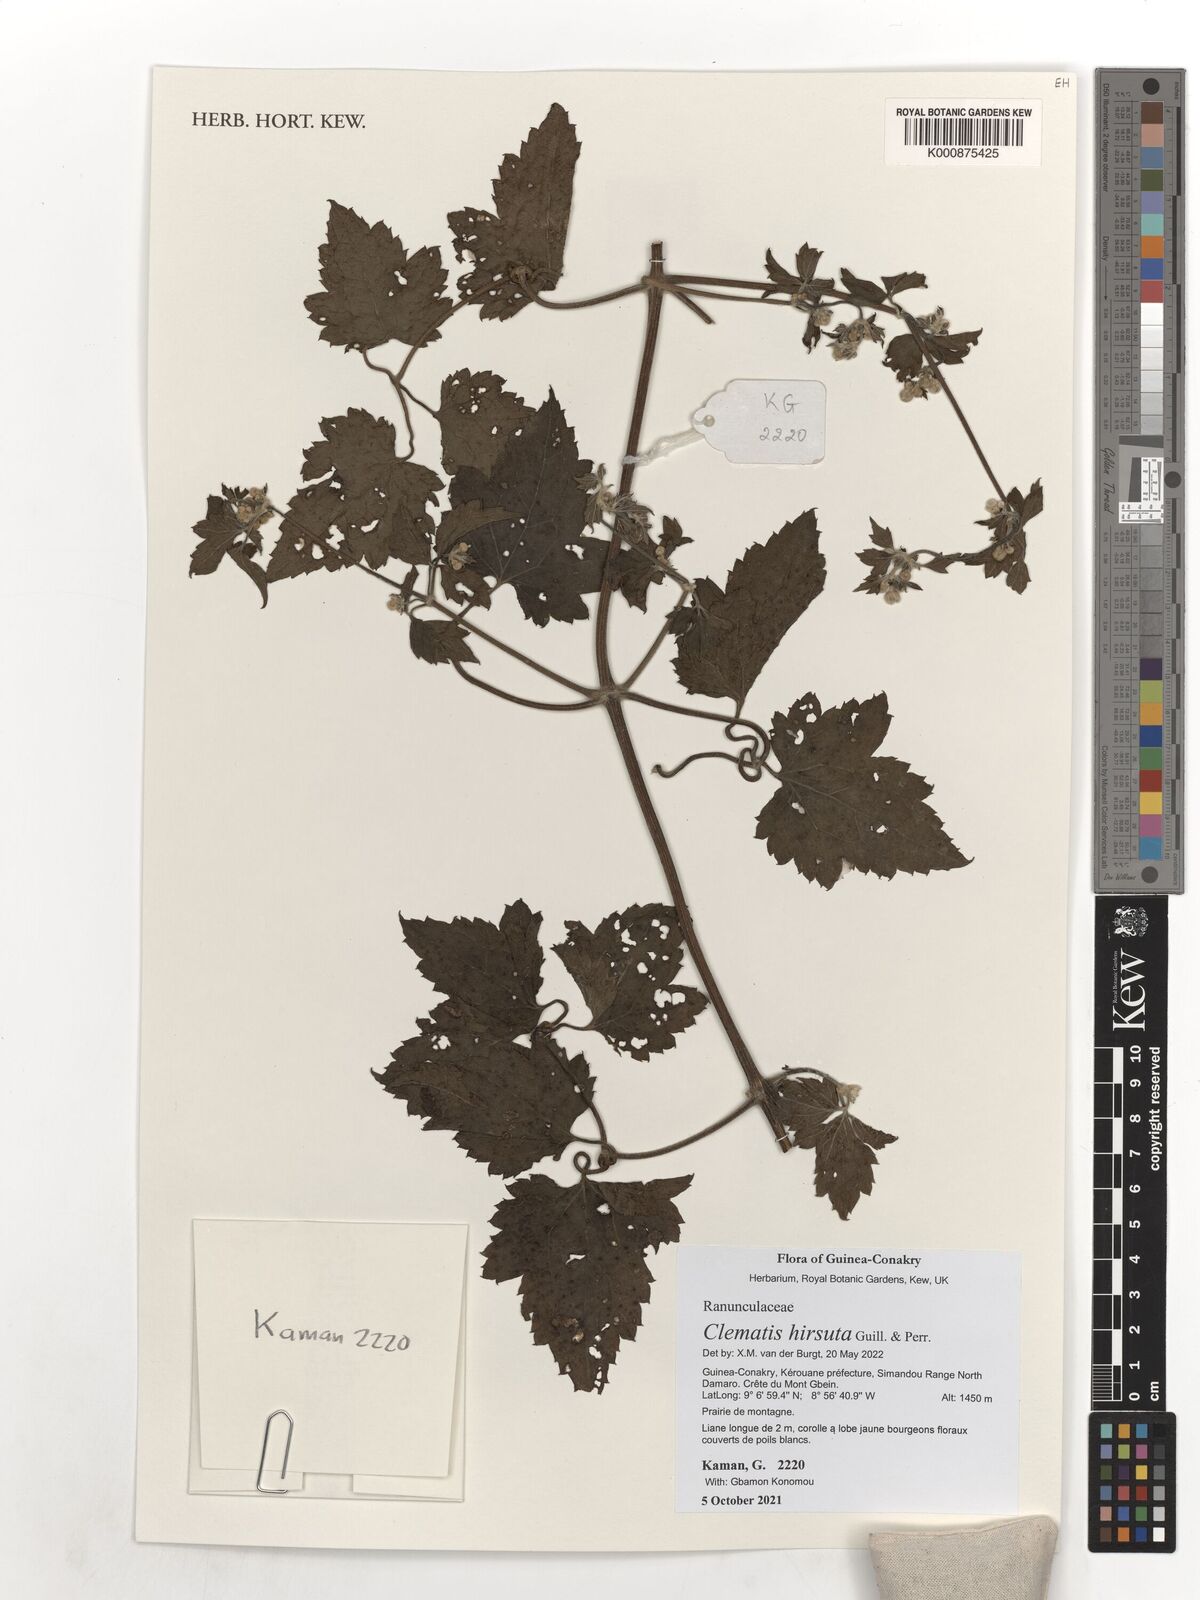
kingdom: Plantae
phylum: Tracheophyta
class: Magnoliopsida
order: Ranunculales
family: Ranunculaceae
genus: Clematis
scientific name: Clematis hirsuta
